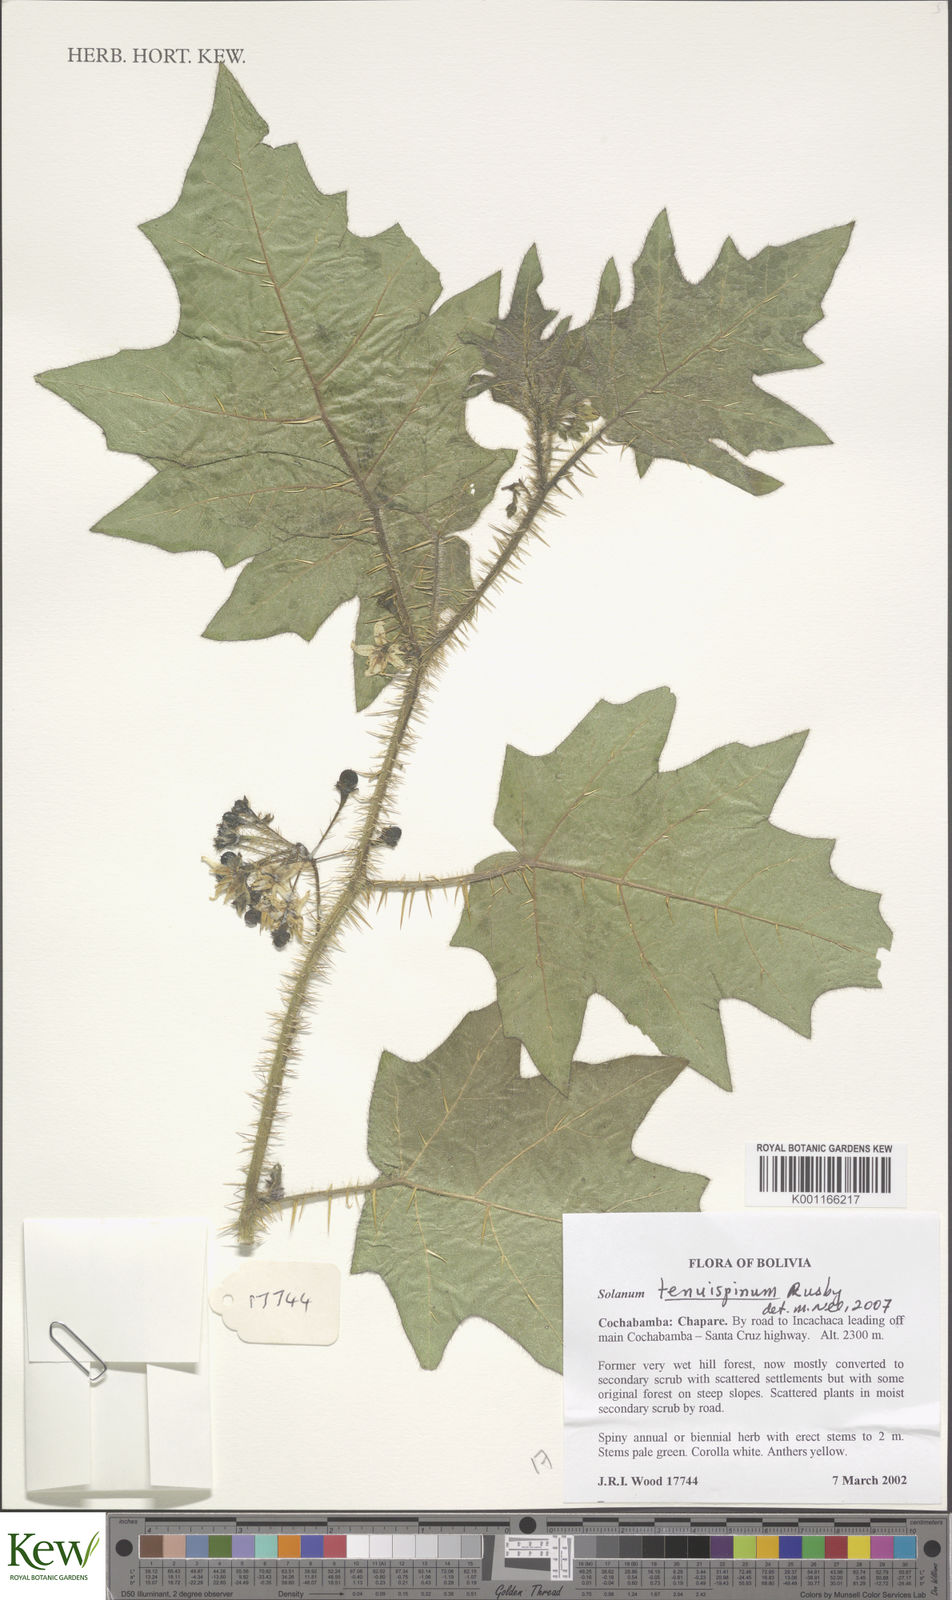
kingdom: Plantae
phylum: Tracheophyta
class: Magnoliopsida
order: Solanales
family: Solanaceae
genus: Solanum
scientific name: Solanum tenuispinum
